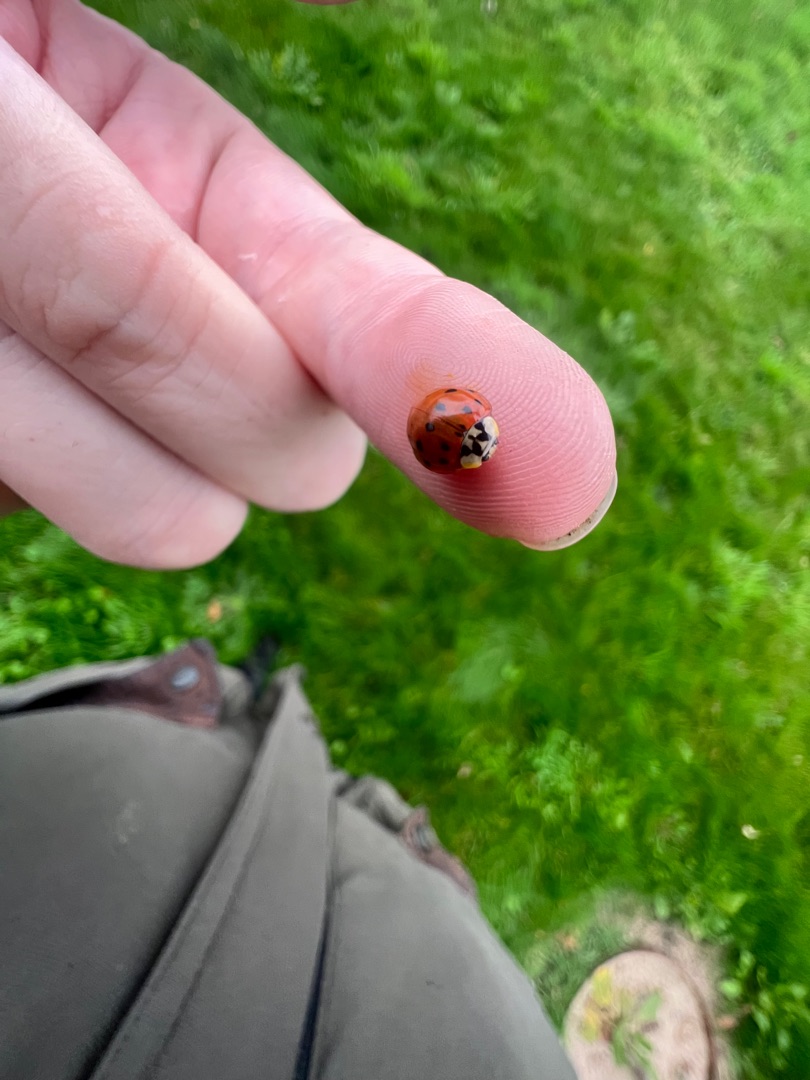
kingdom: Animalia
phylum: Arthropoda
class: Insecta
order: Coleoptera
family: Coccinellidae
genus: Harmonia
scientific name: Harmonia axyridis
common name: Harlekinmariehøne
